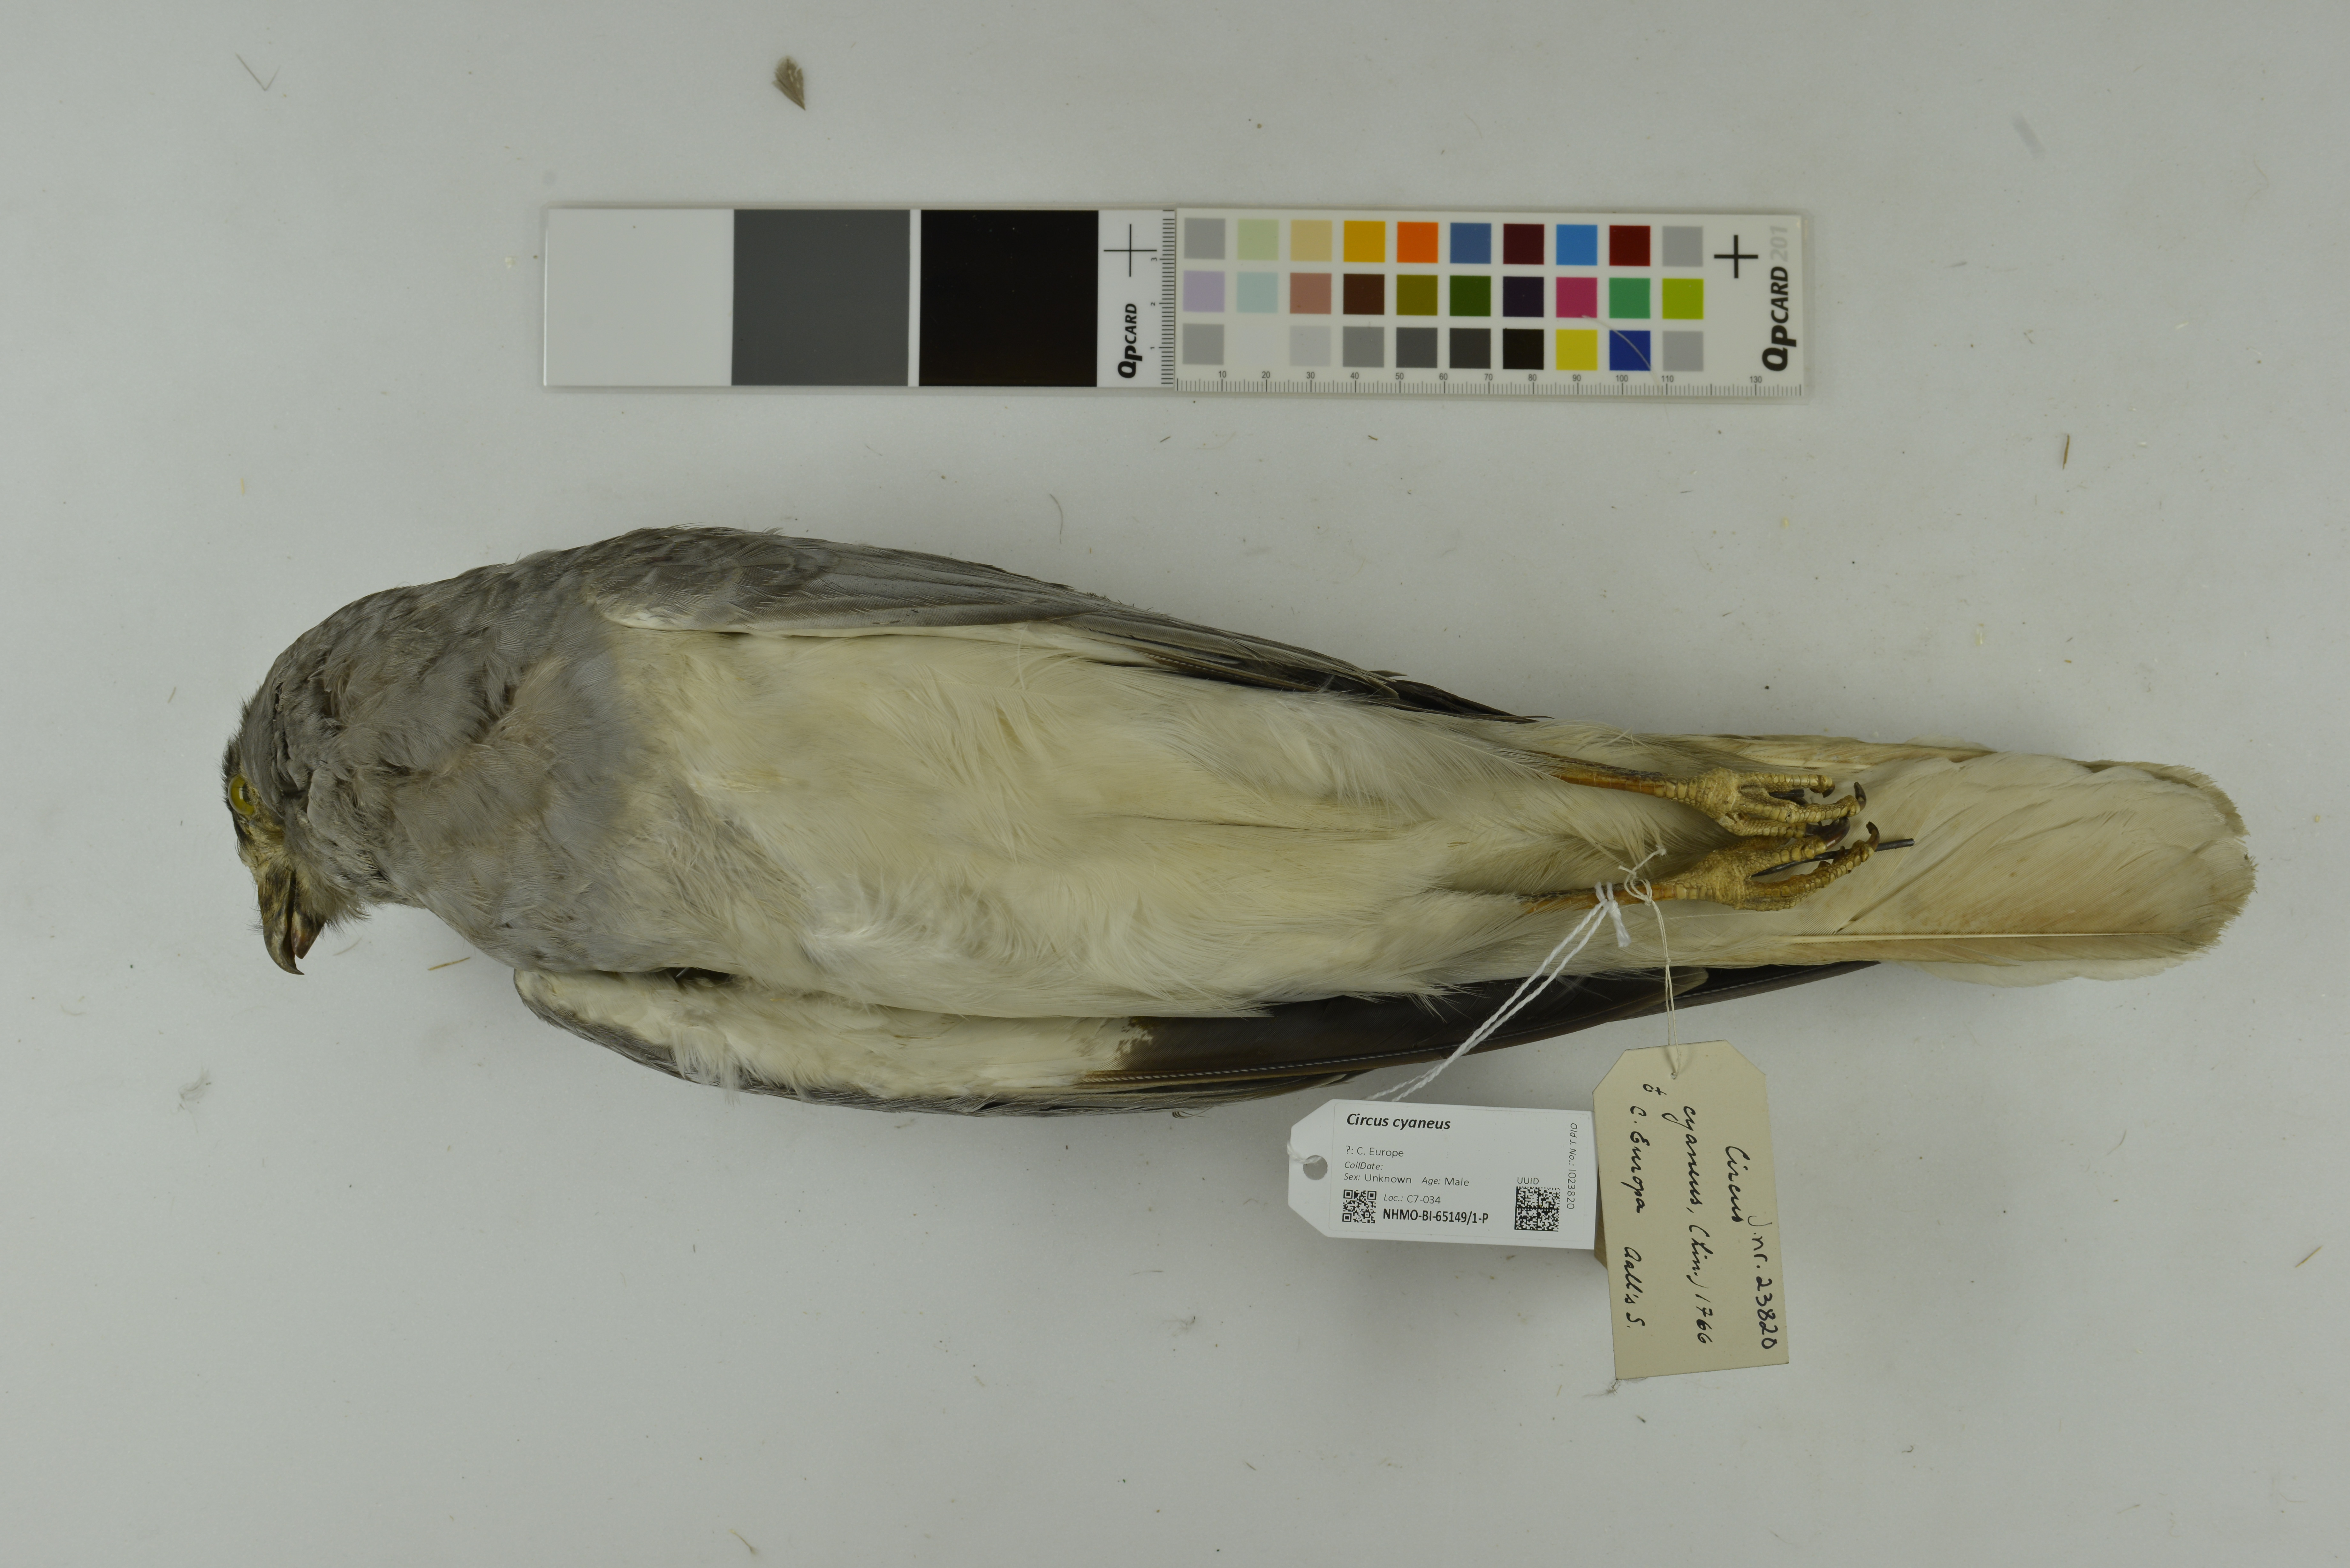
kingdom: Animalia
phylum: Chordata
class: Aves
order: Accipitriformes
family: Accipitridae
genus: Circus
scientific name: Circus cyaneus
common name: Hen harrier
